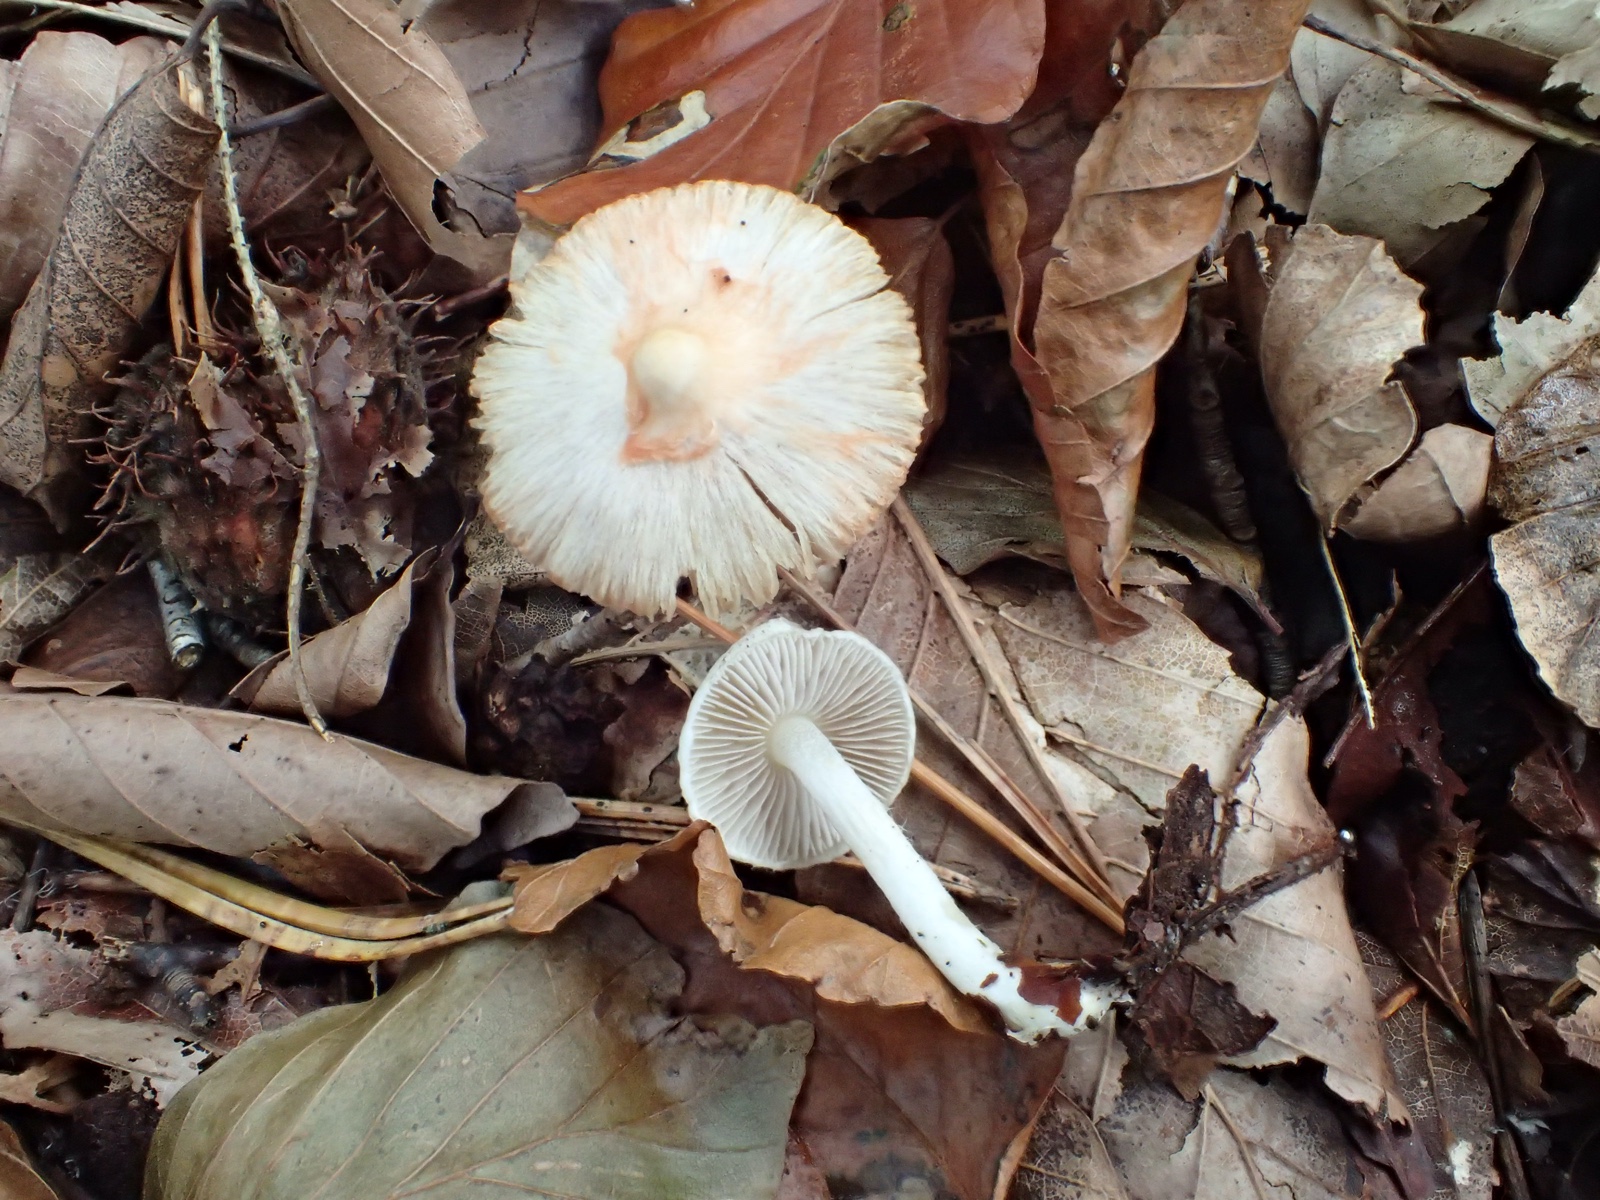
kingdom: Fungi
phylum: Basidiomycota
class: Agaricomycetes
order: Agaricales
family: Inocybaceae
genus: Inocybe
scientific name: Inocybe
